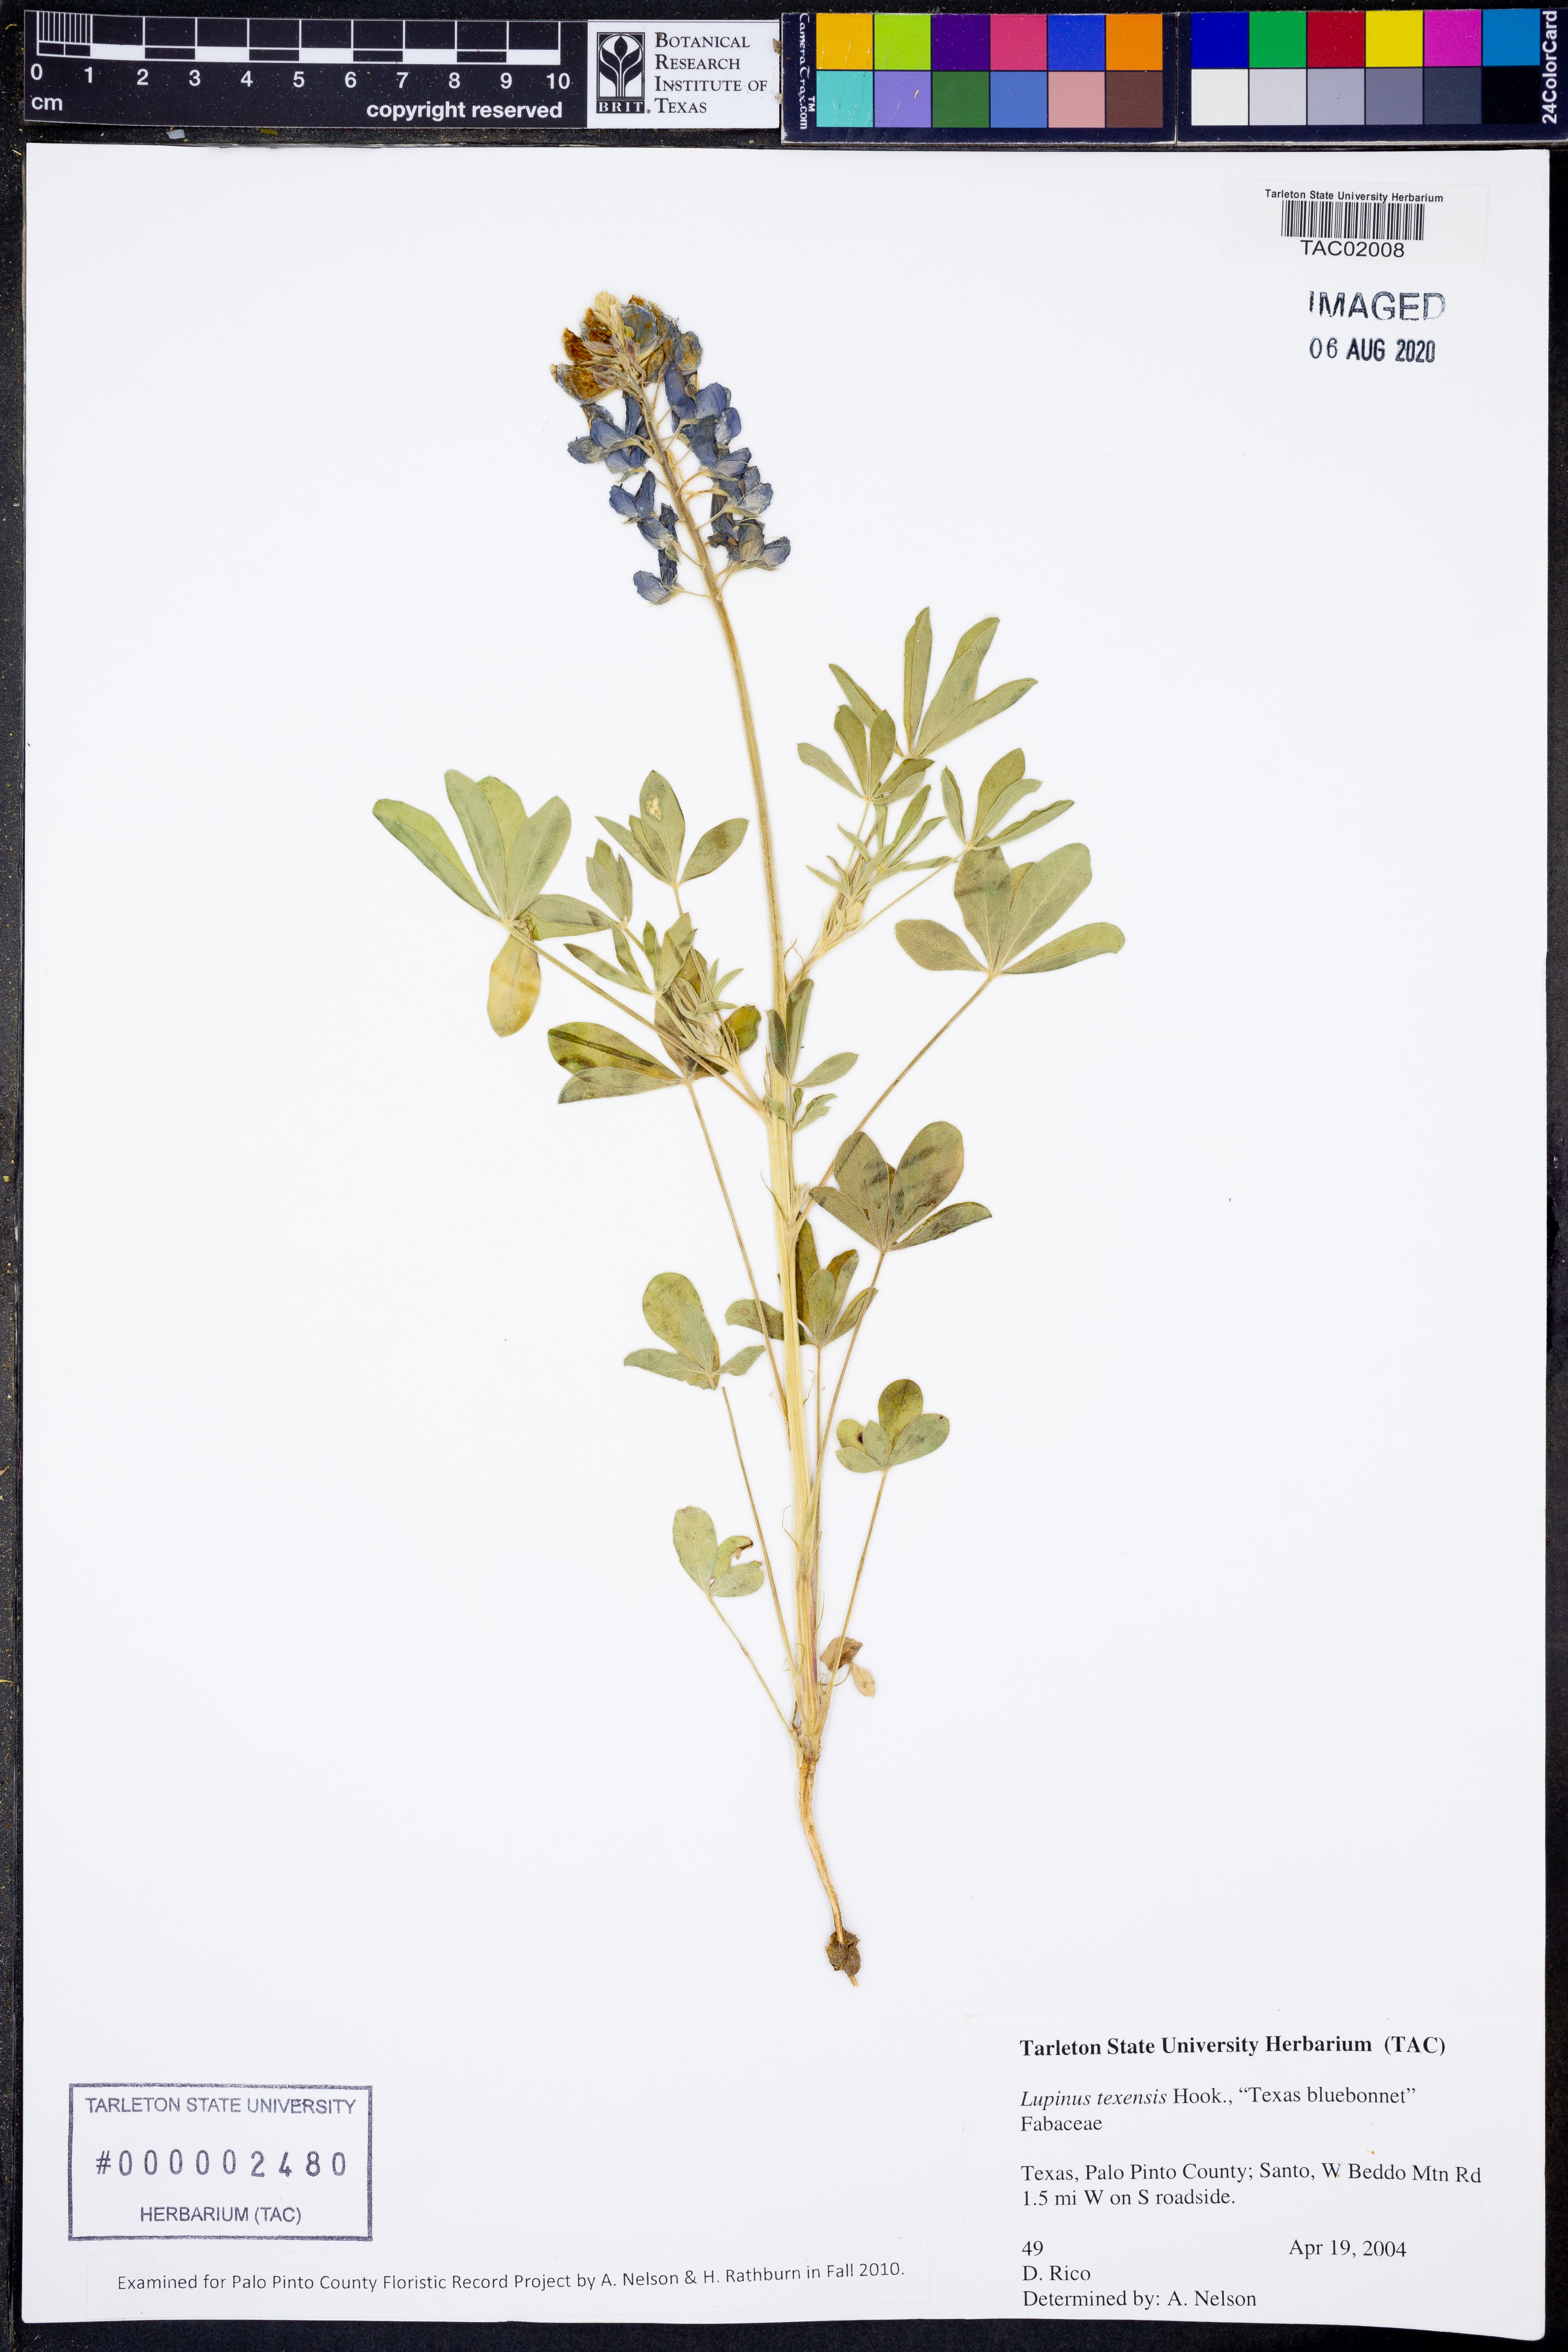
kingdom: Plantae
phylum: Tracheophyta
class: Magnoliopsida
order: Fabales
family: Fabaceae
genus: Lupinus
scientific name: Lupinus texensis
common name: Texas bluebonnet
